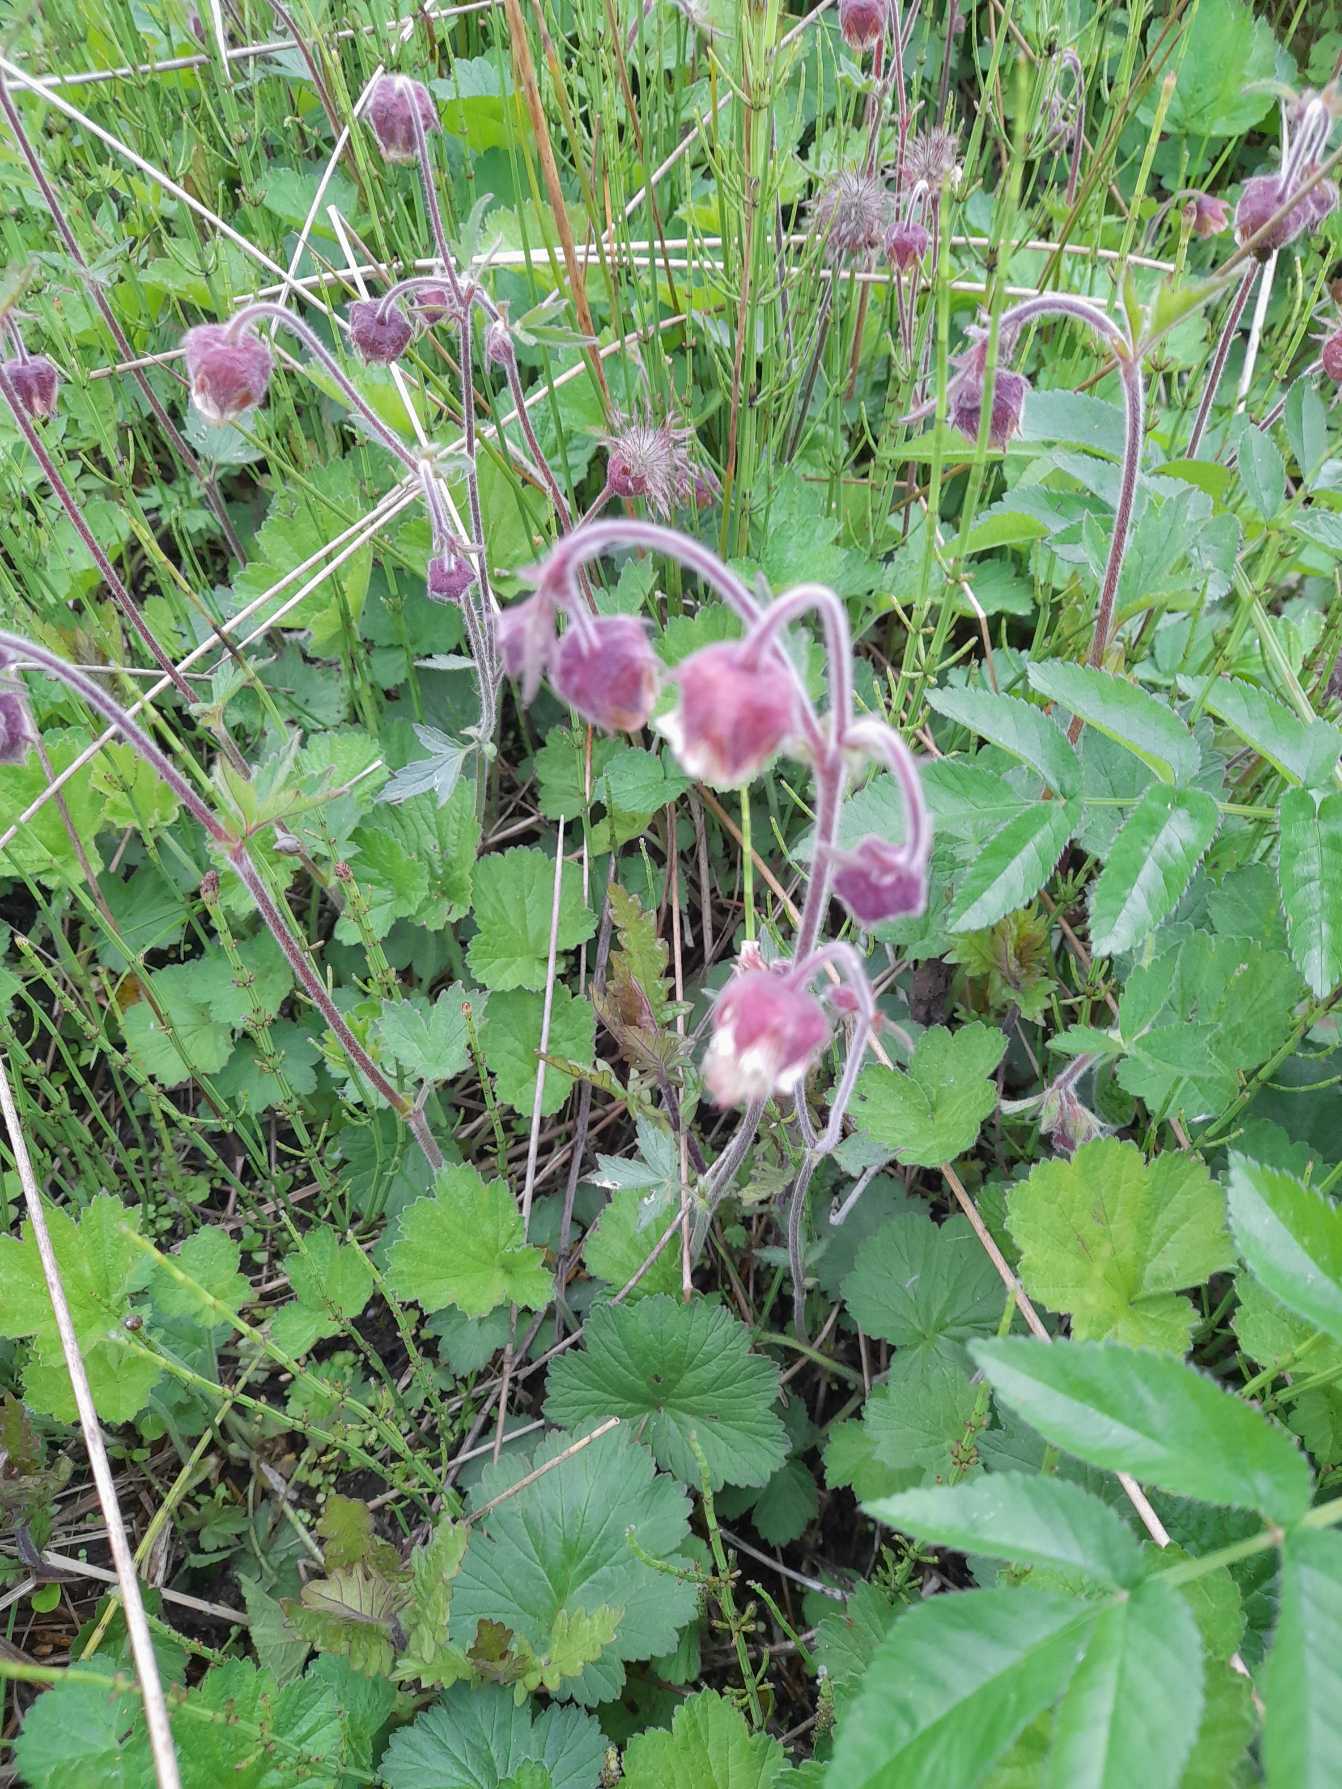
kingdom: Plantae
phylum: Tracheophyta
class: Magnoliopsida
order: Rosales
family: Rosaceae
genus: Geum
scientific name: Geum rivale
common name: Eng-nellikerod
